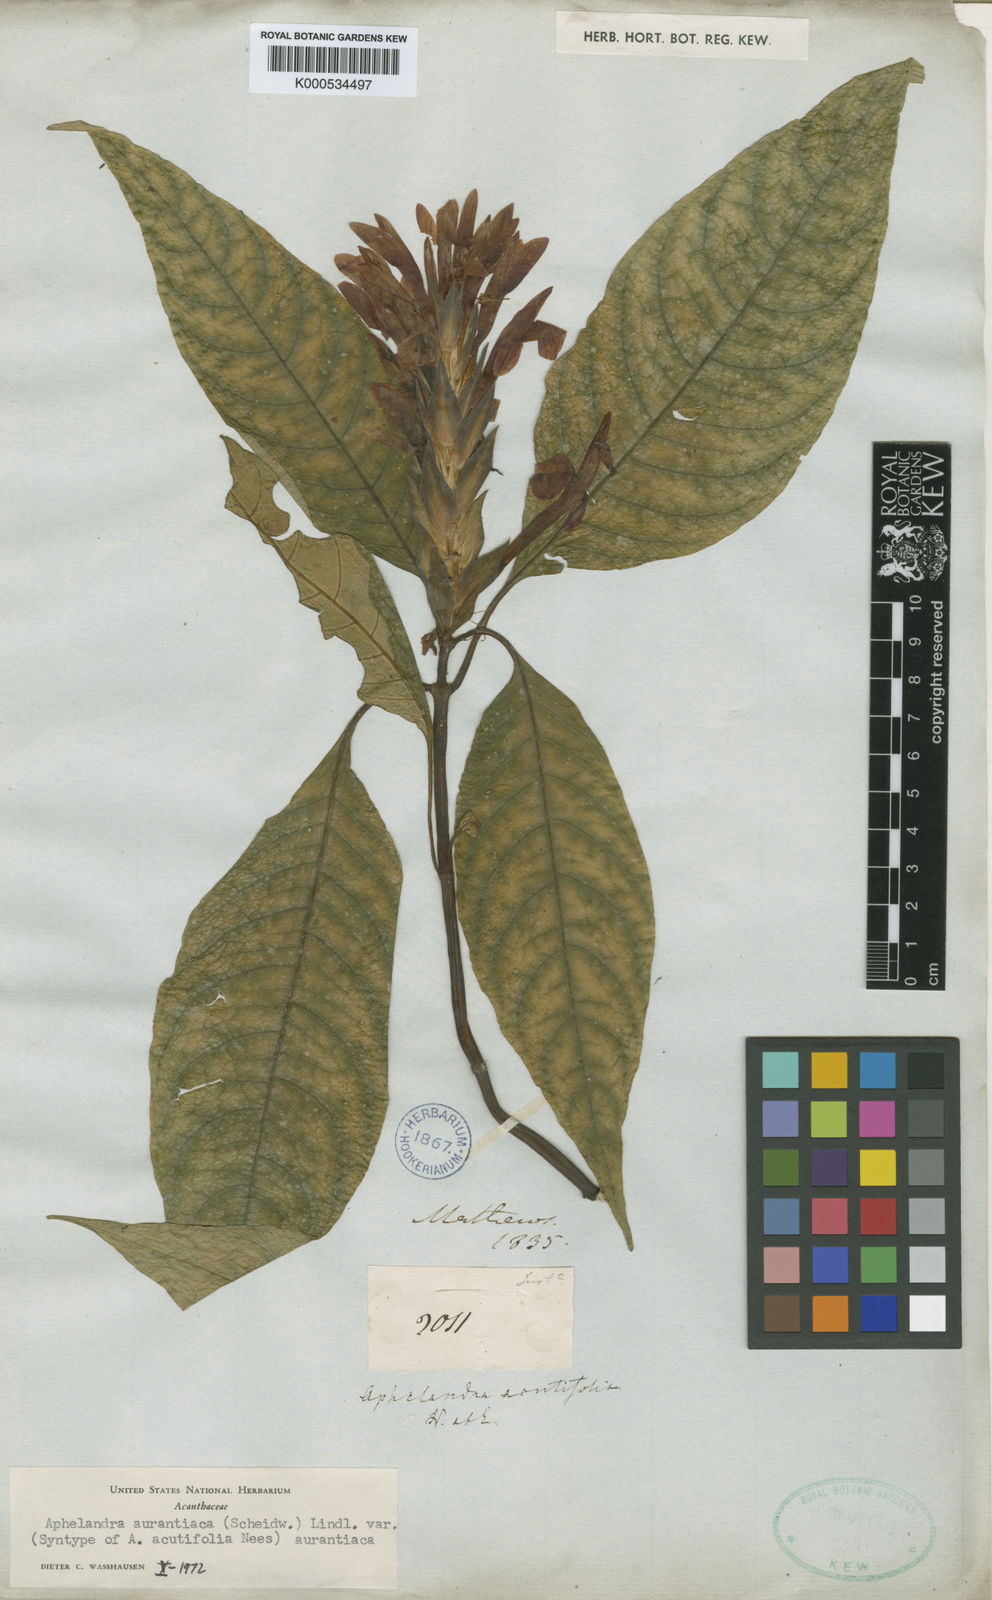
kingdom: Plantae
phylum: Tracheophyta
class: Magnoliopsida
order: Lamiales
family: Acanthaceae
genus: Aphelandra
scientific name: Aphelandra aurantiaca
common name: Fiery spike
